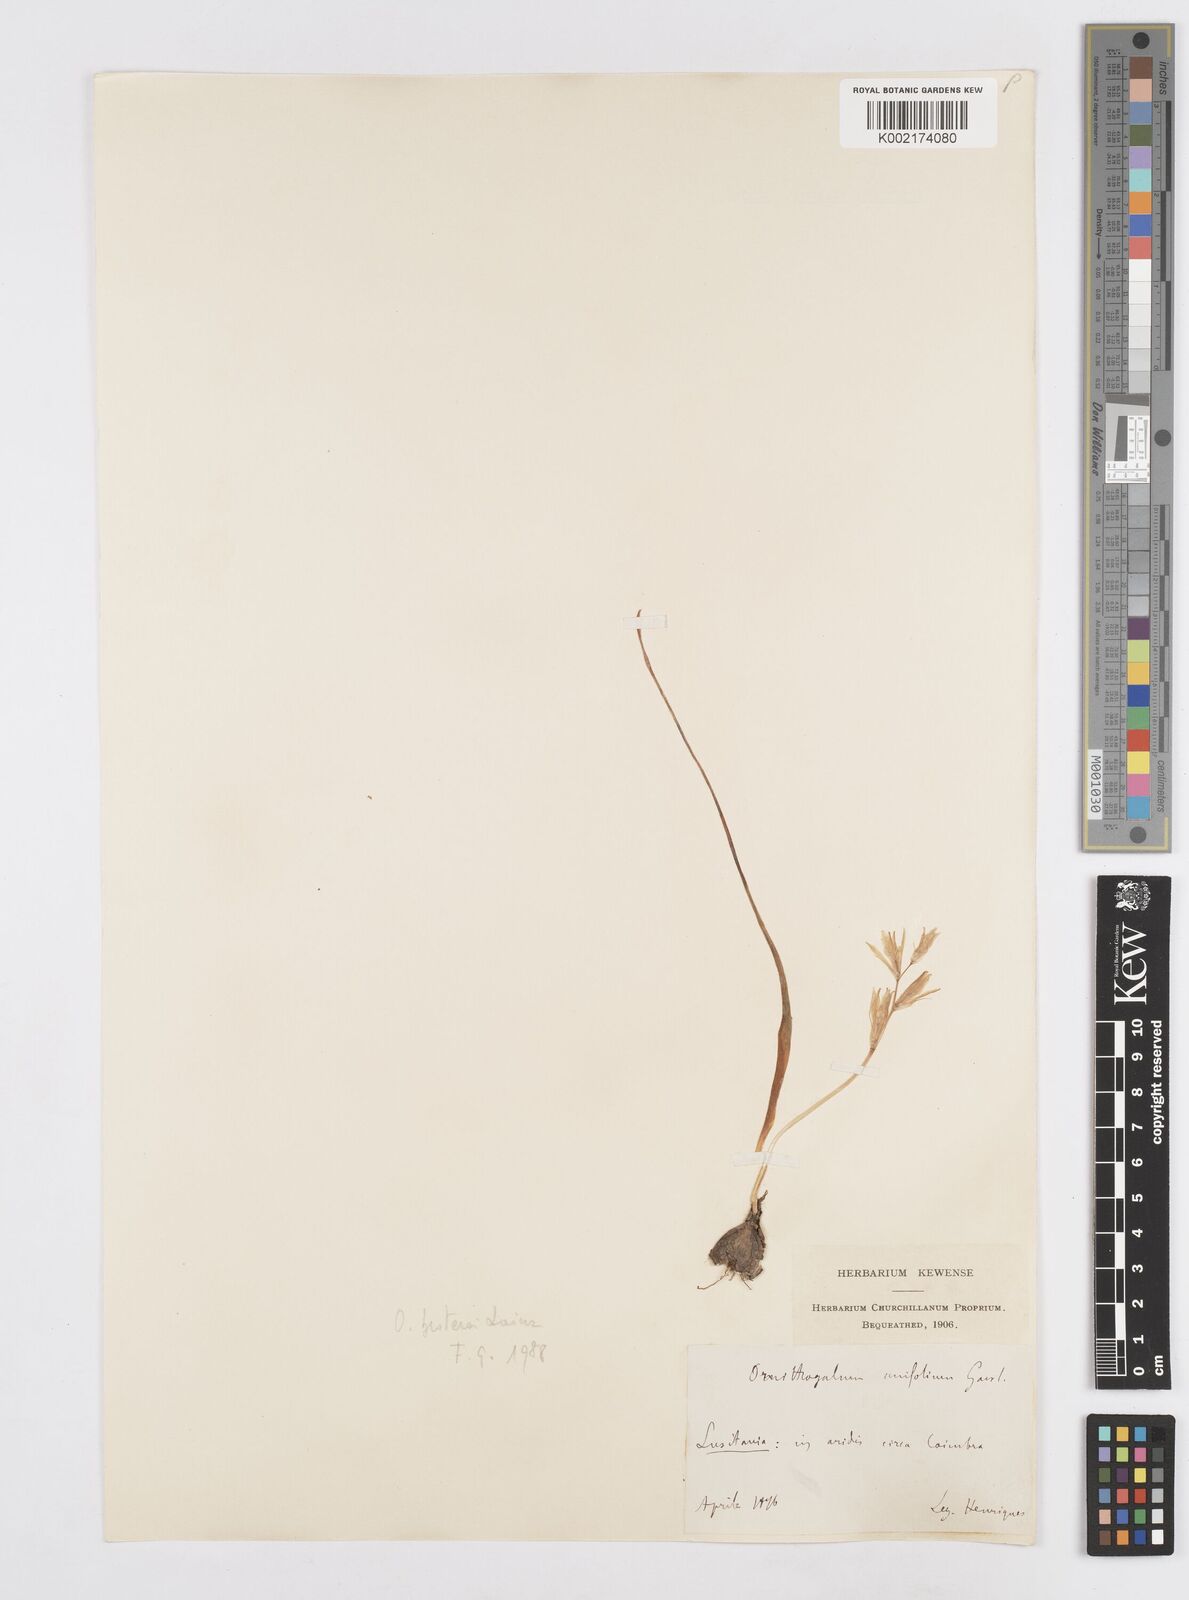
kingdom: Plantae
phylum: Tracheophyta
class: Liliopsida
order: Asparagales
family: Asparagaceae
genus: Ornithogalum
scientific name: Ornithogalum broteroi
